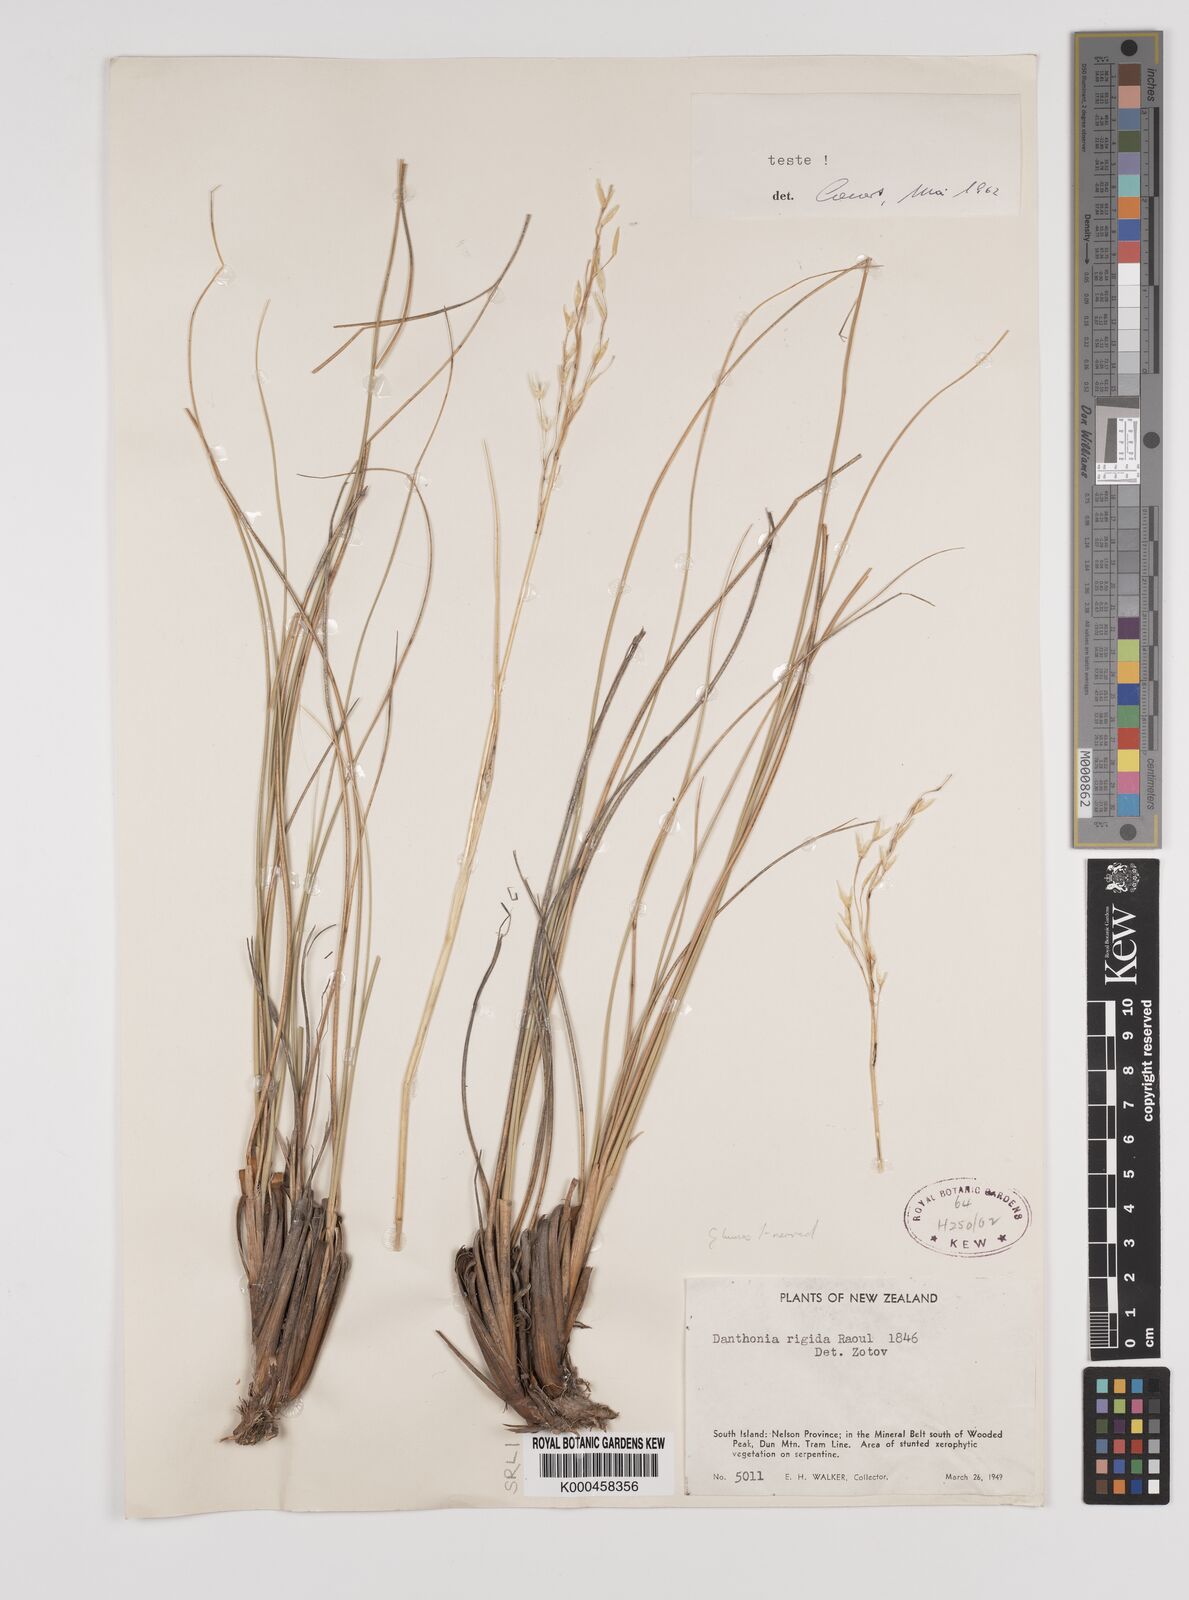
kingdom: Plantae
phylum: Tracheophyta
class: Liliopsida
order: Poales
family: Poaceae
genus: Chionochloa
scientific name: Chionochloa rigida
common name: Narrow leaved snow tussock
